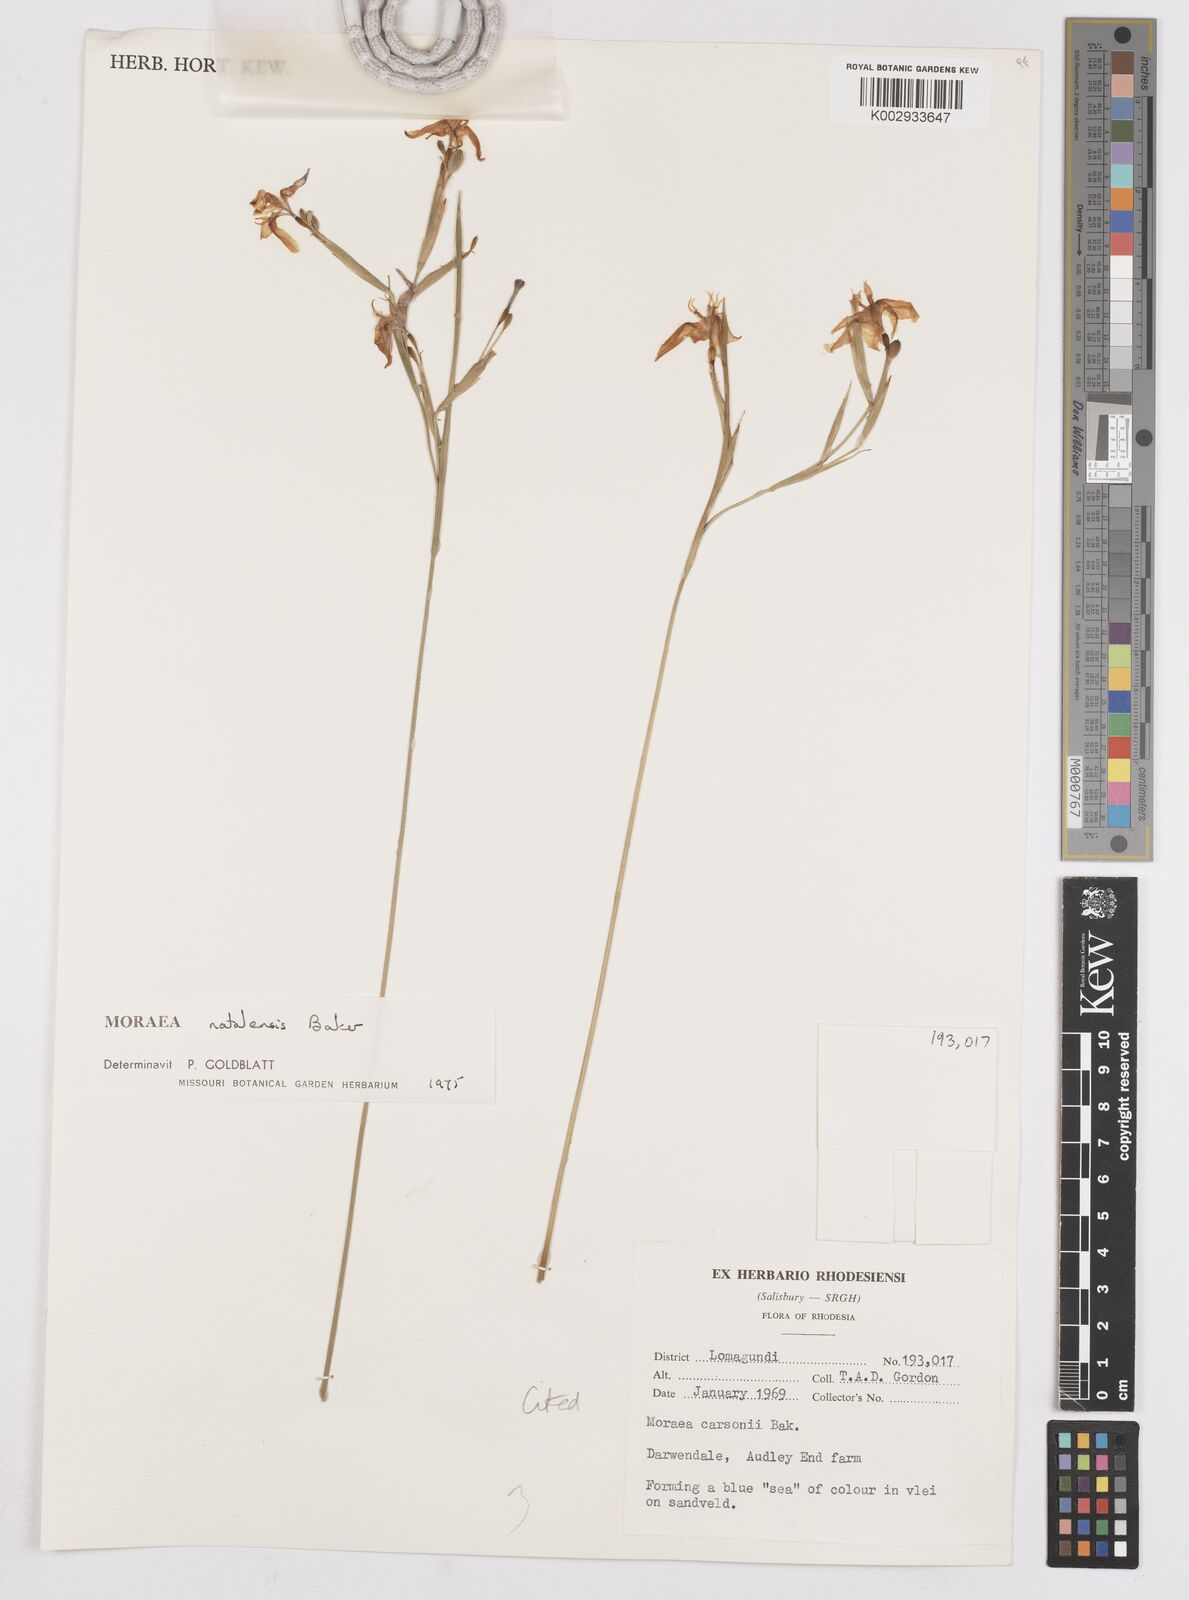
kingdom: Plantae
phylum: Tracheophyta
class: Liliopsida
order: Asparagales
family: Iridaceae
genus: Moraea
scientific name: Moraea natalensis
